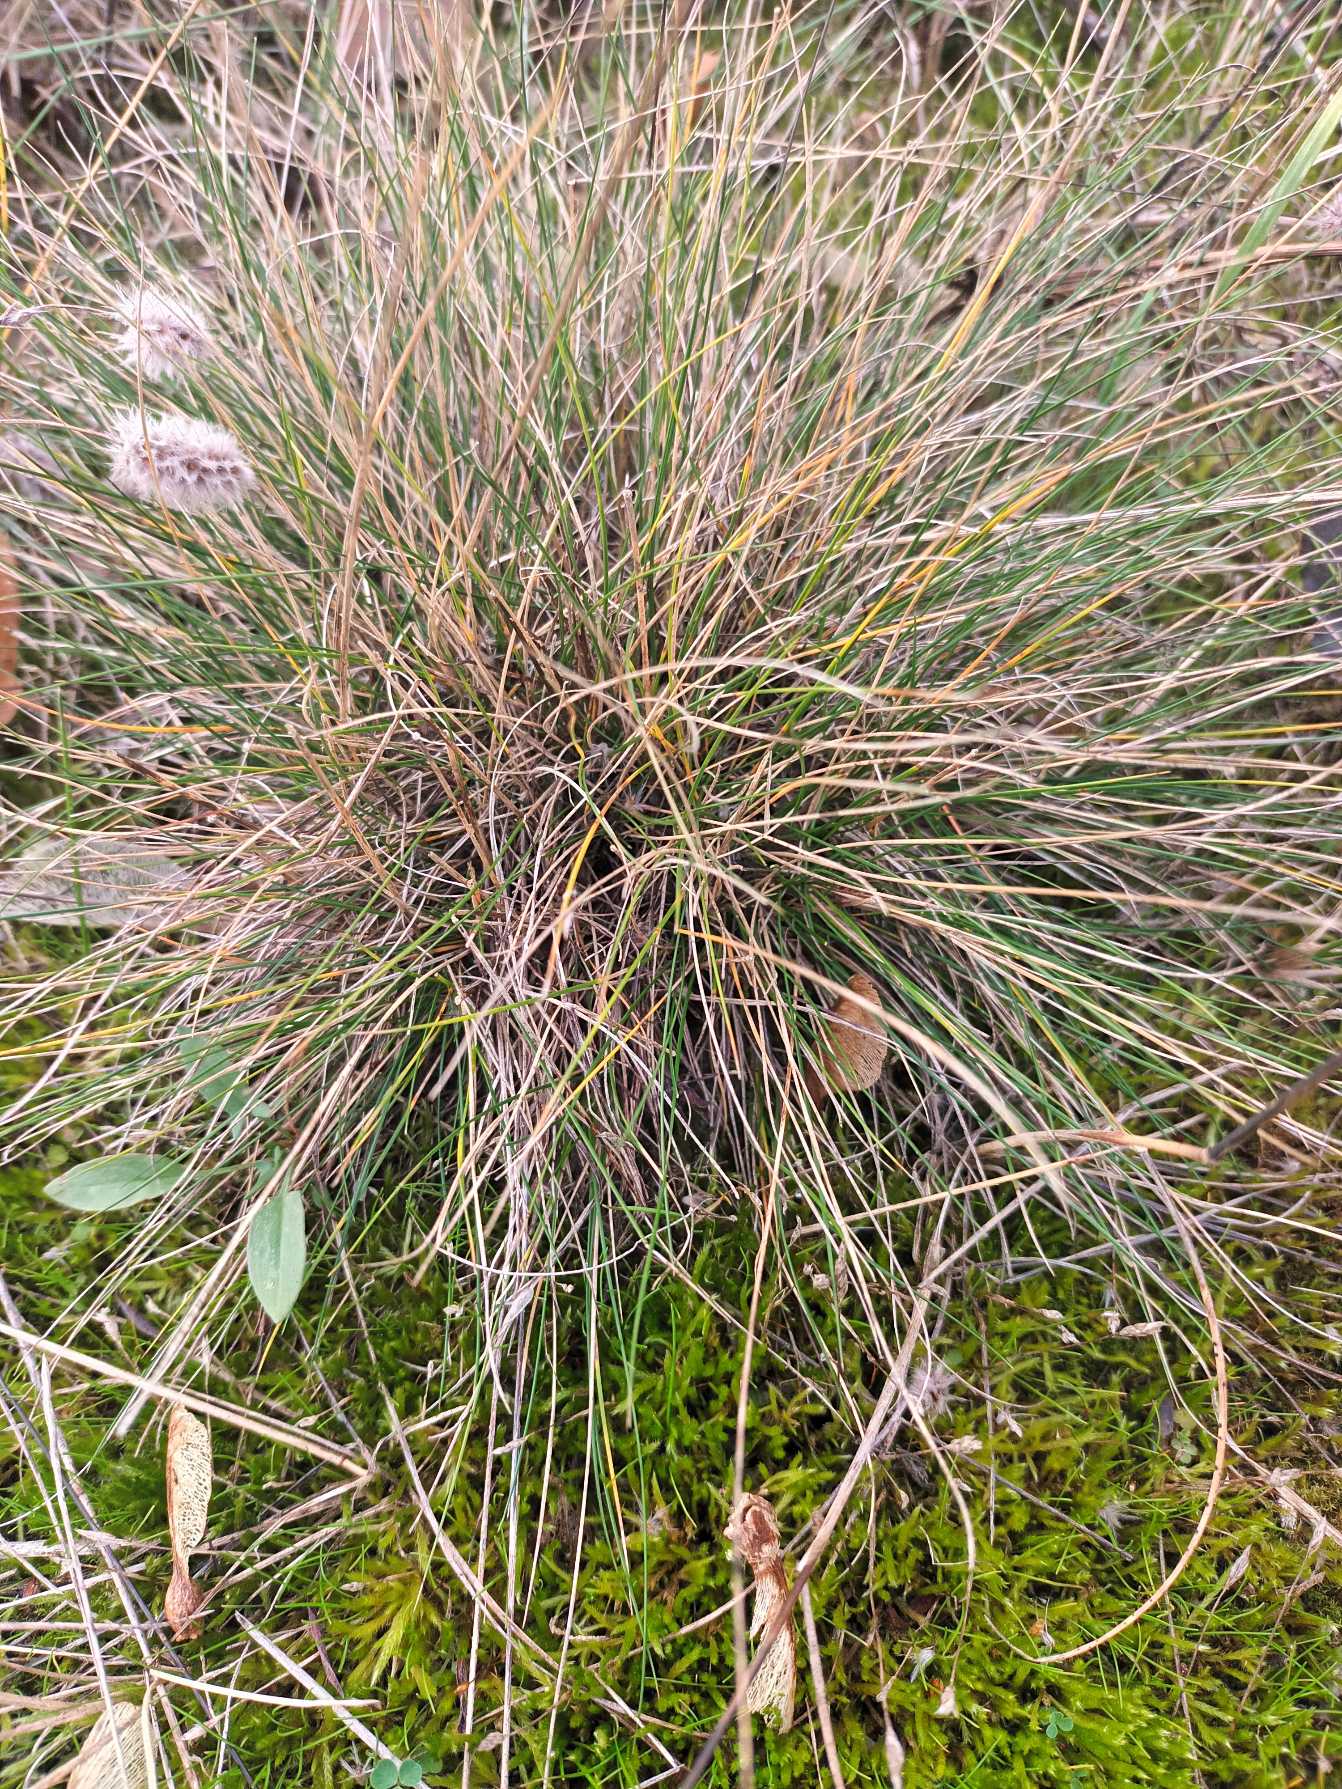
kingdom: Plantae
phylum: Tracheophyta
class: Liliopsida
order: Poales
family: Poaceae
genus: Festuca
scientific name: Festuca ovina
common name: Fåre-svingel
